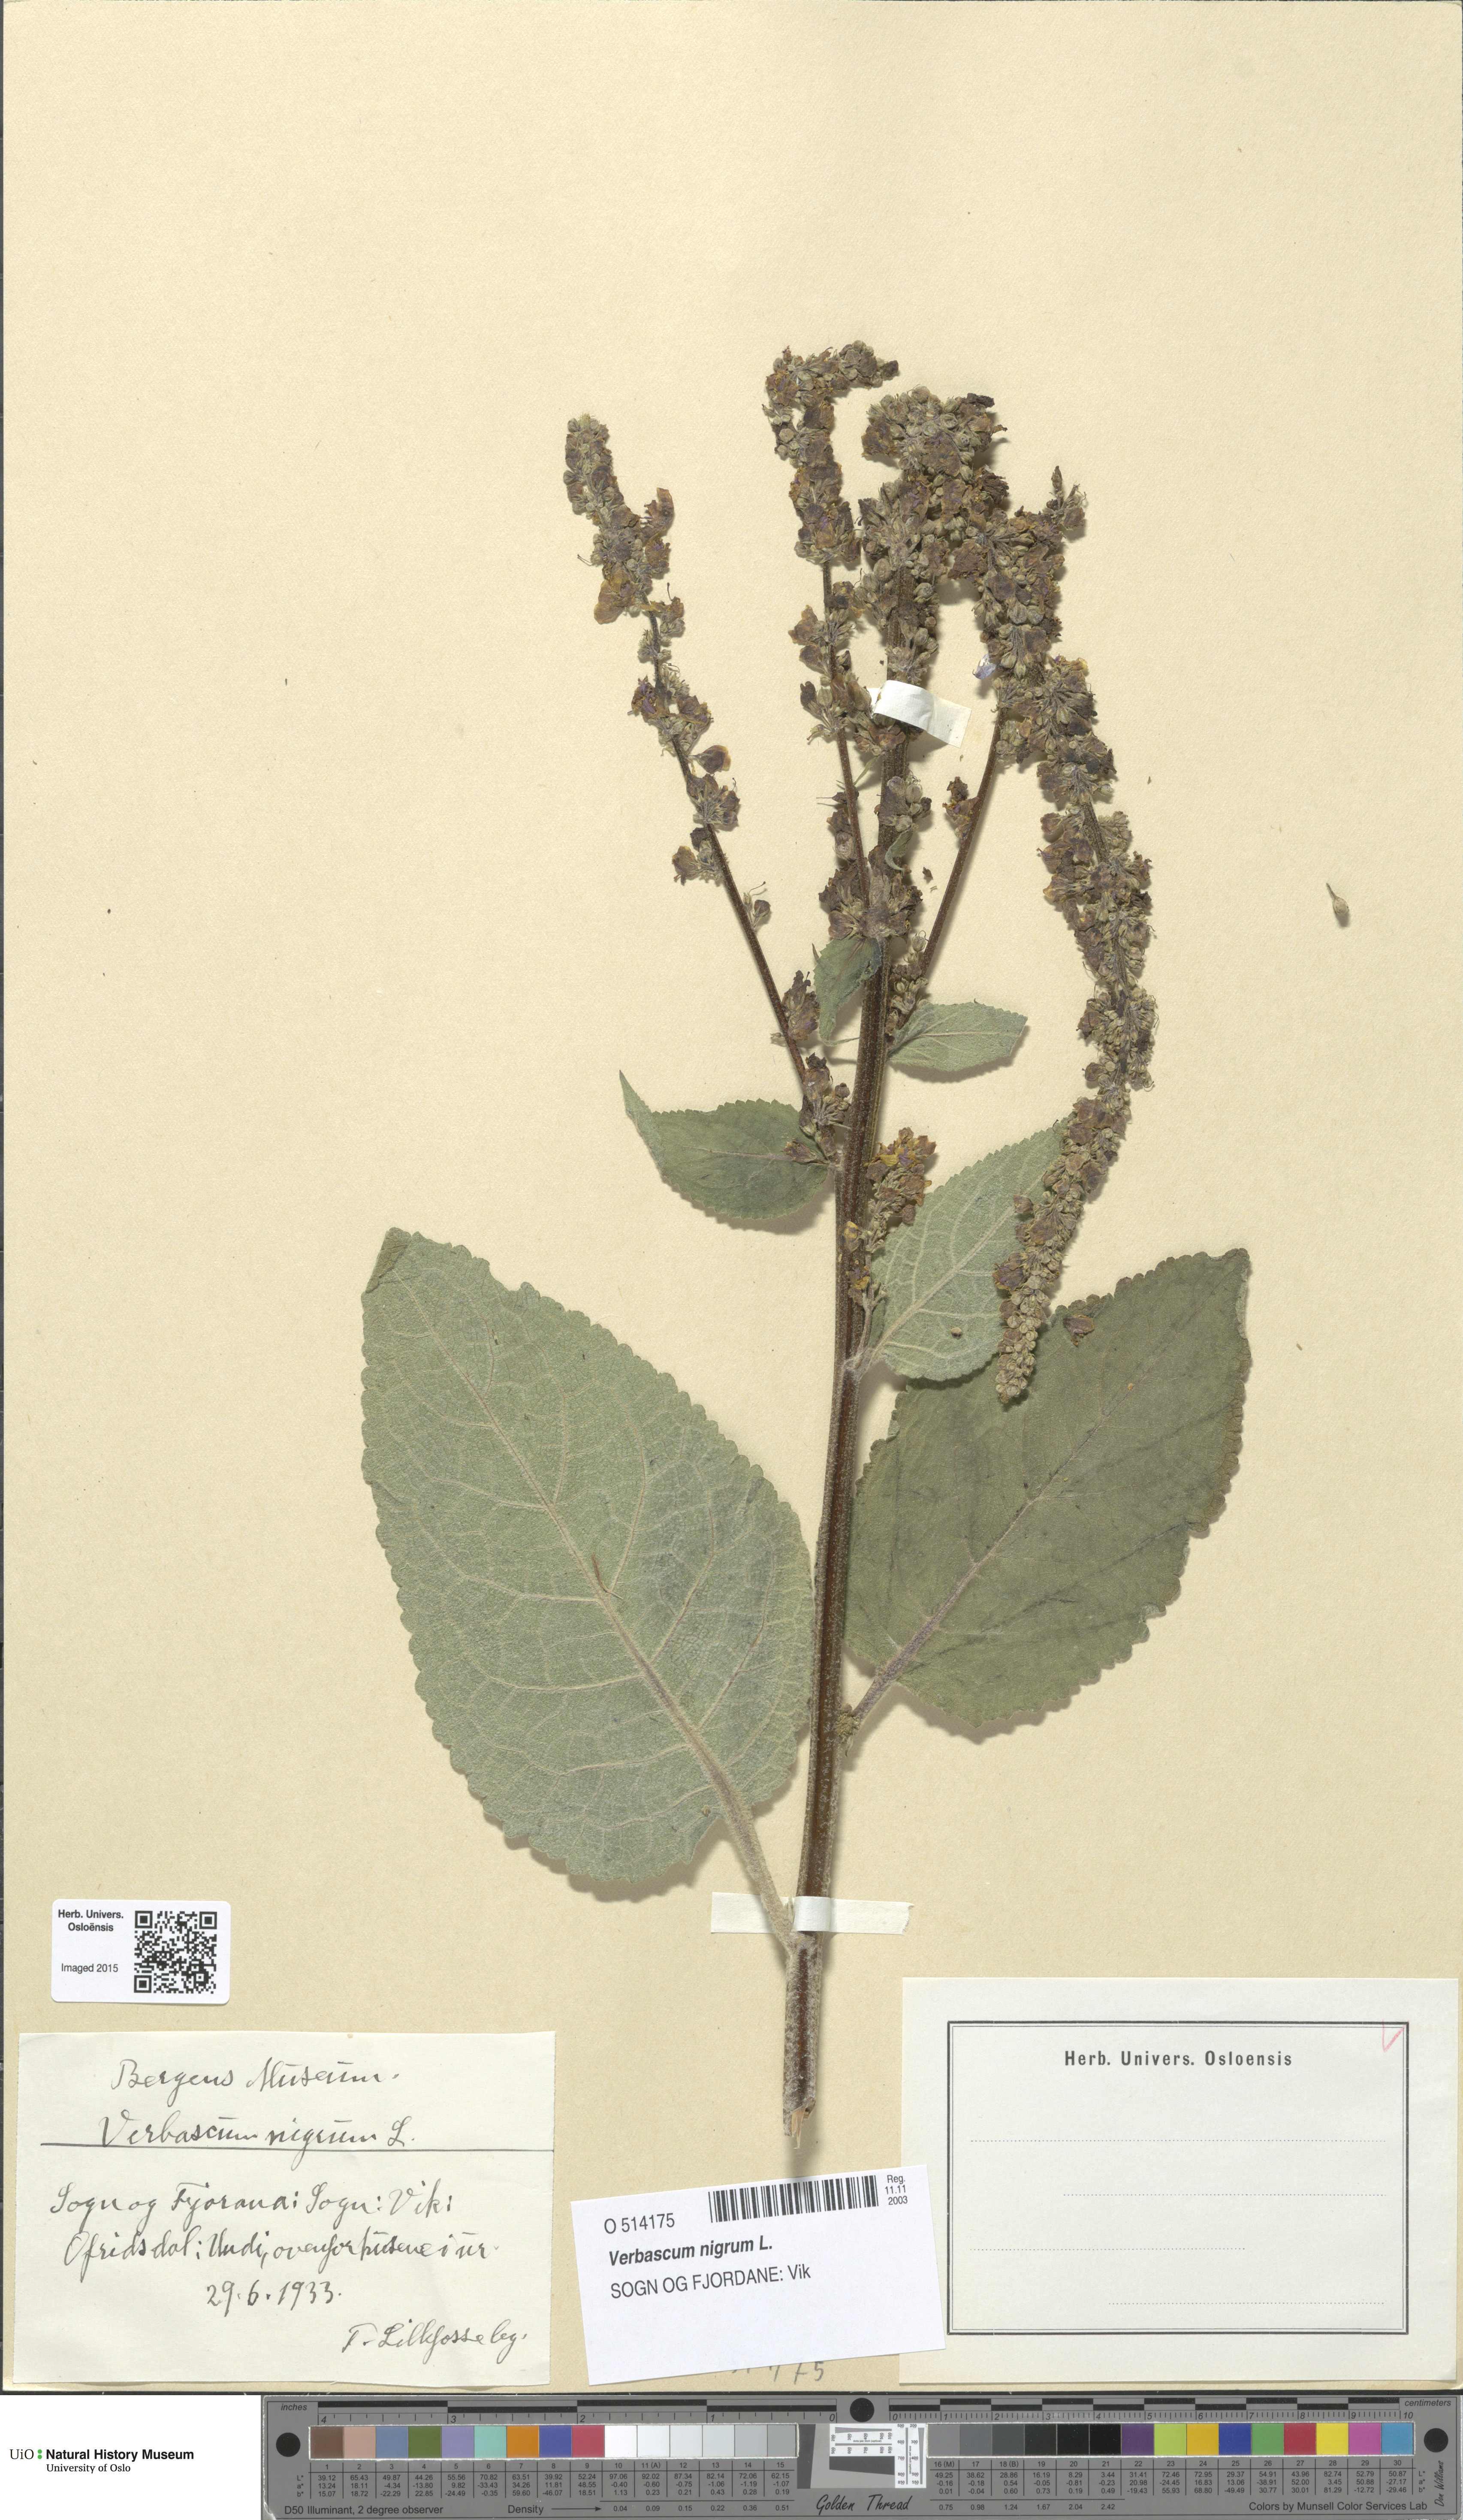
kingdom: Plantae
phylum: Tracheophyta
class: Magnoliopsida
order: Lamiales
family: Scrophulariaceae
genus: Verbascum
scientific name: Verbascum nigrum
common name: Dark mullein
